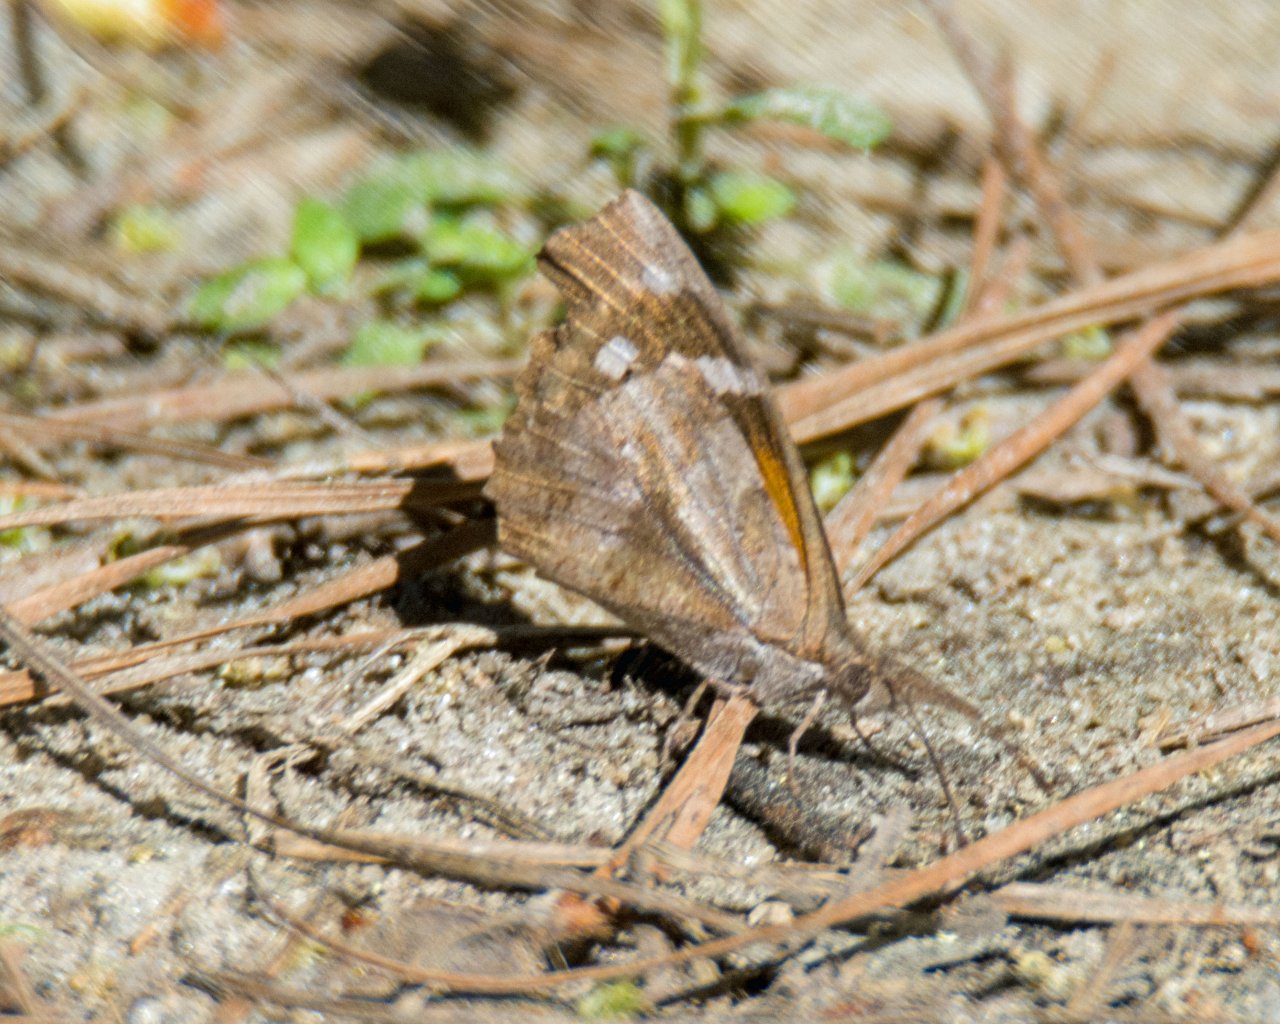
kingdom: Animalia
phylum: Arthropoda
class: Insecta
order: Lepidoptera
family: Nymphalidae
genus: Libytheana
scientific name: Libytheana carinenta
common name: American Snout
